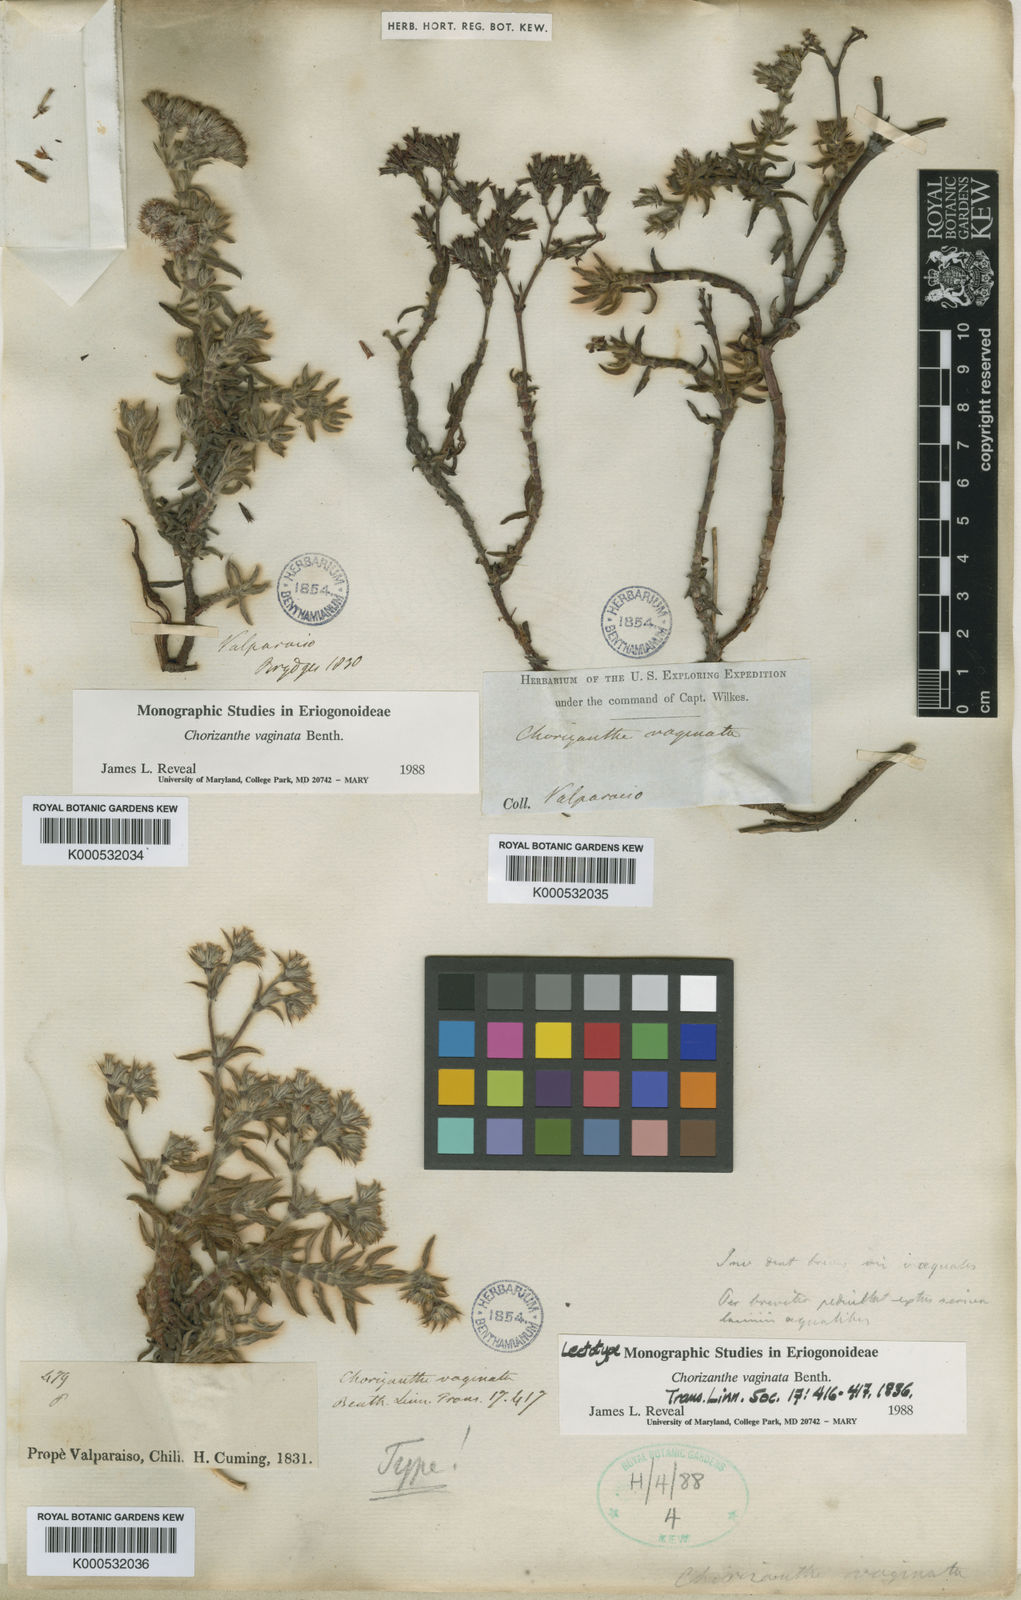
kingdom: Plantae
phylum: Tracheophyta
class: Magnoliopsida
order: Caryophyllales
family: Polygonaceae
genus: Chorizanthe
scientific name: Chorizanthe vaginata
